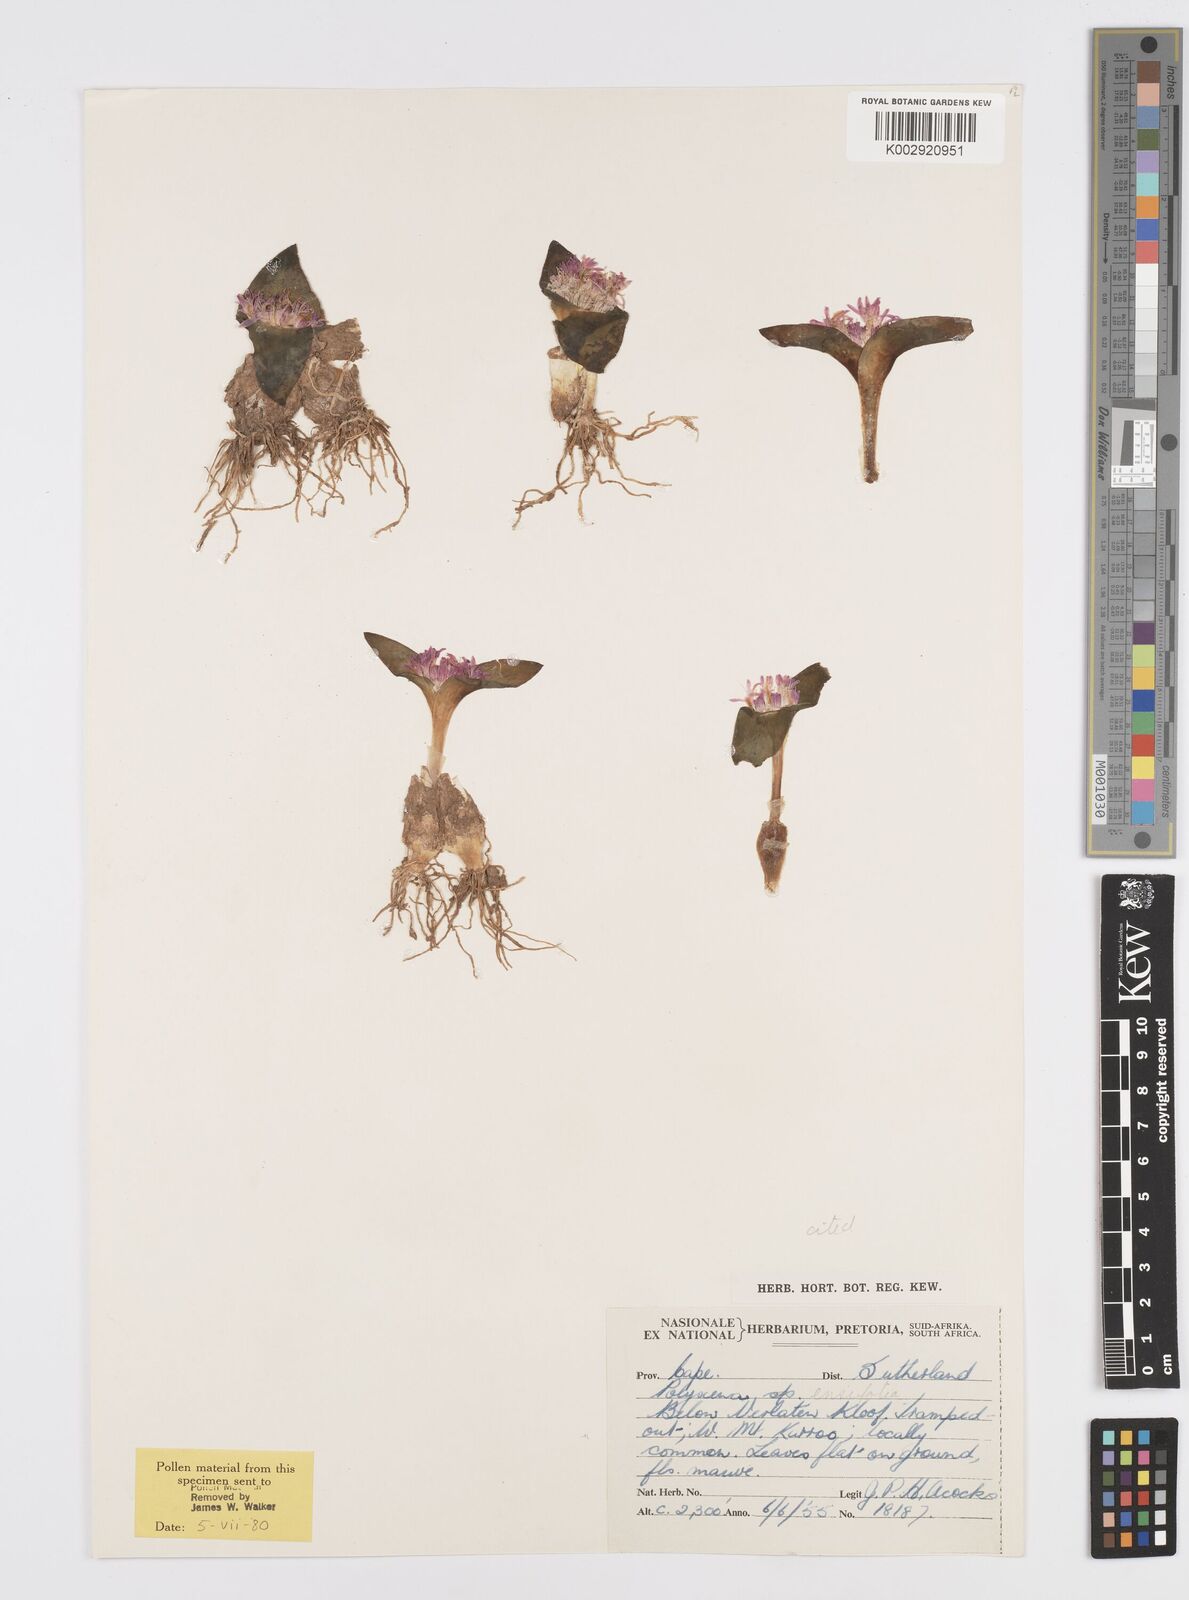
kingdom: Plantae
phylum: Tracheophyta
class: Liliopsida
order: Asparagales
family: Asparagaceae
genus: Lachenalia
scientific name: Lachenalia ensifolia
